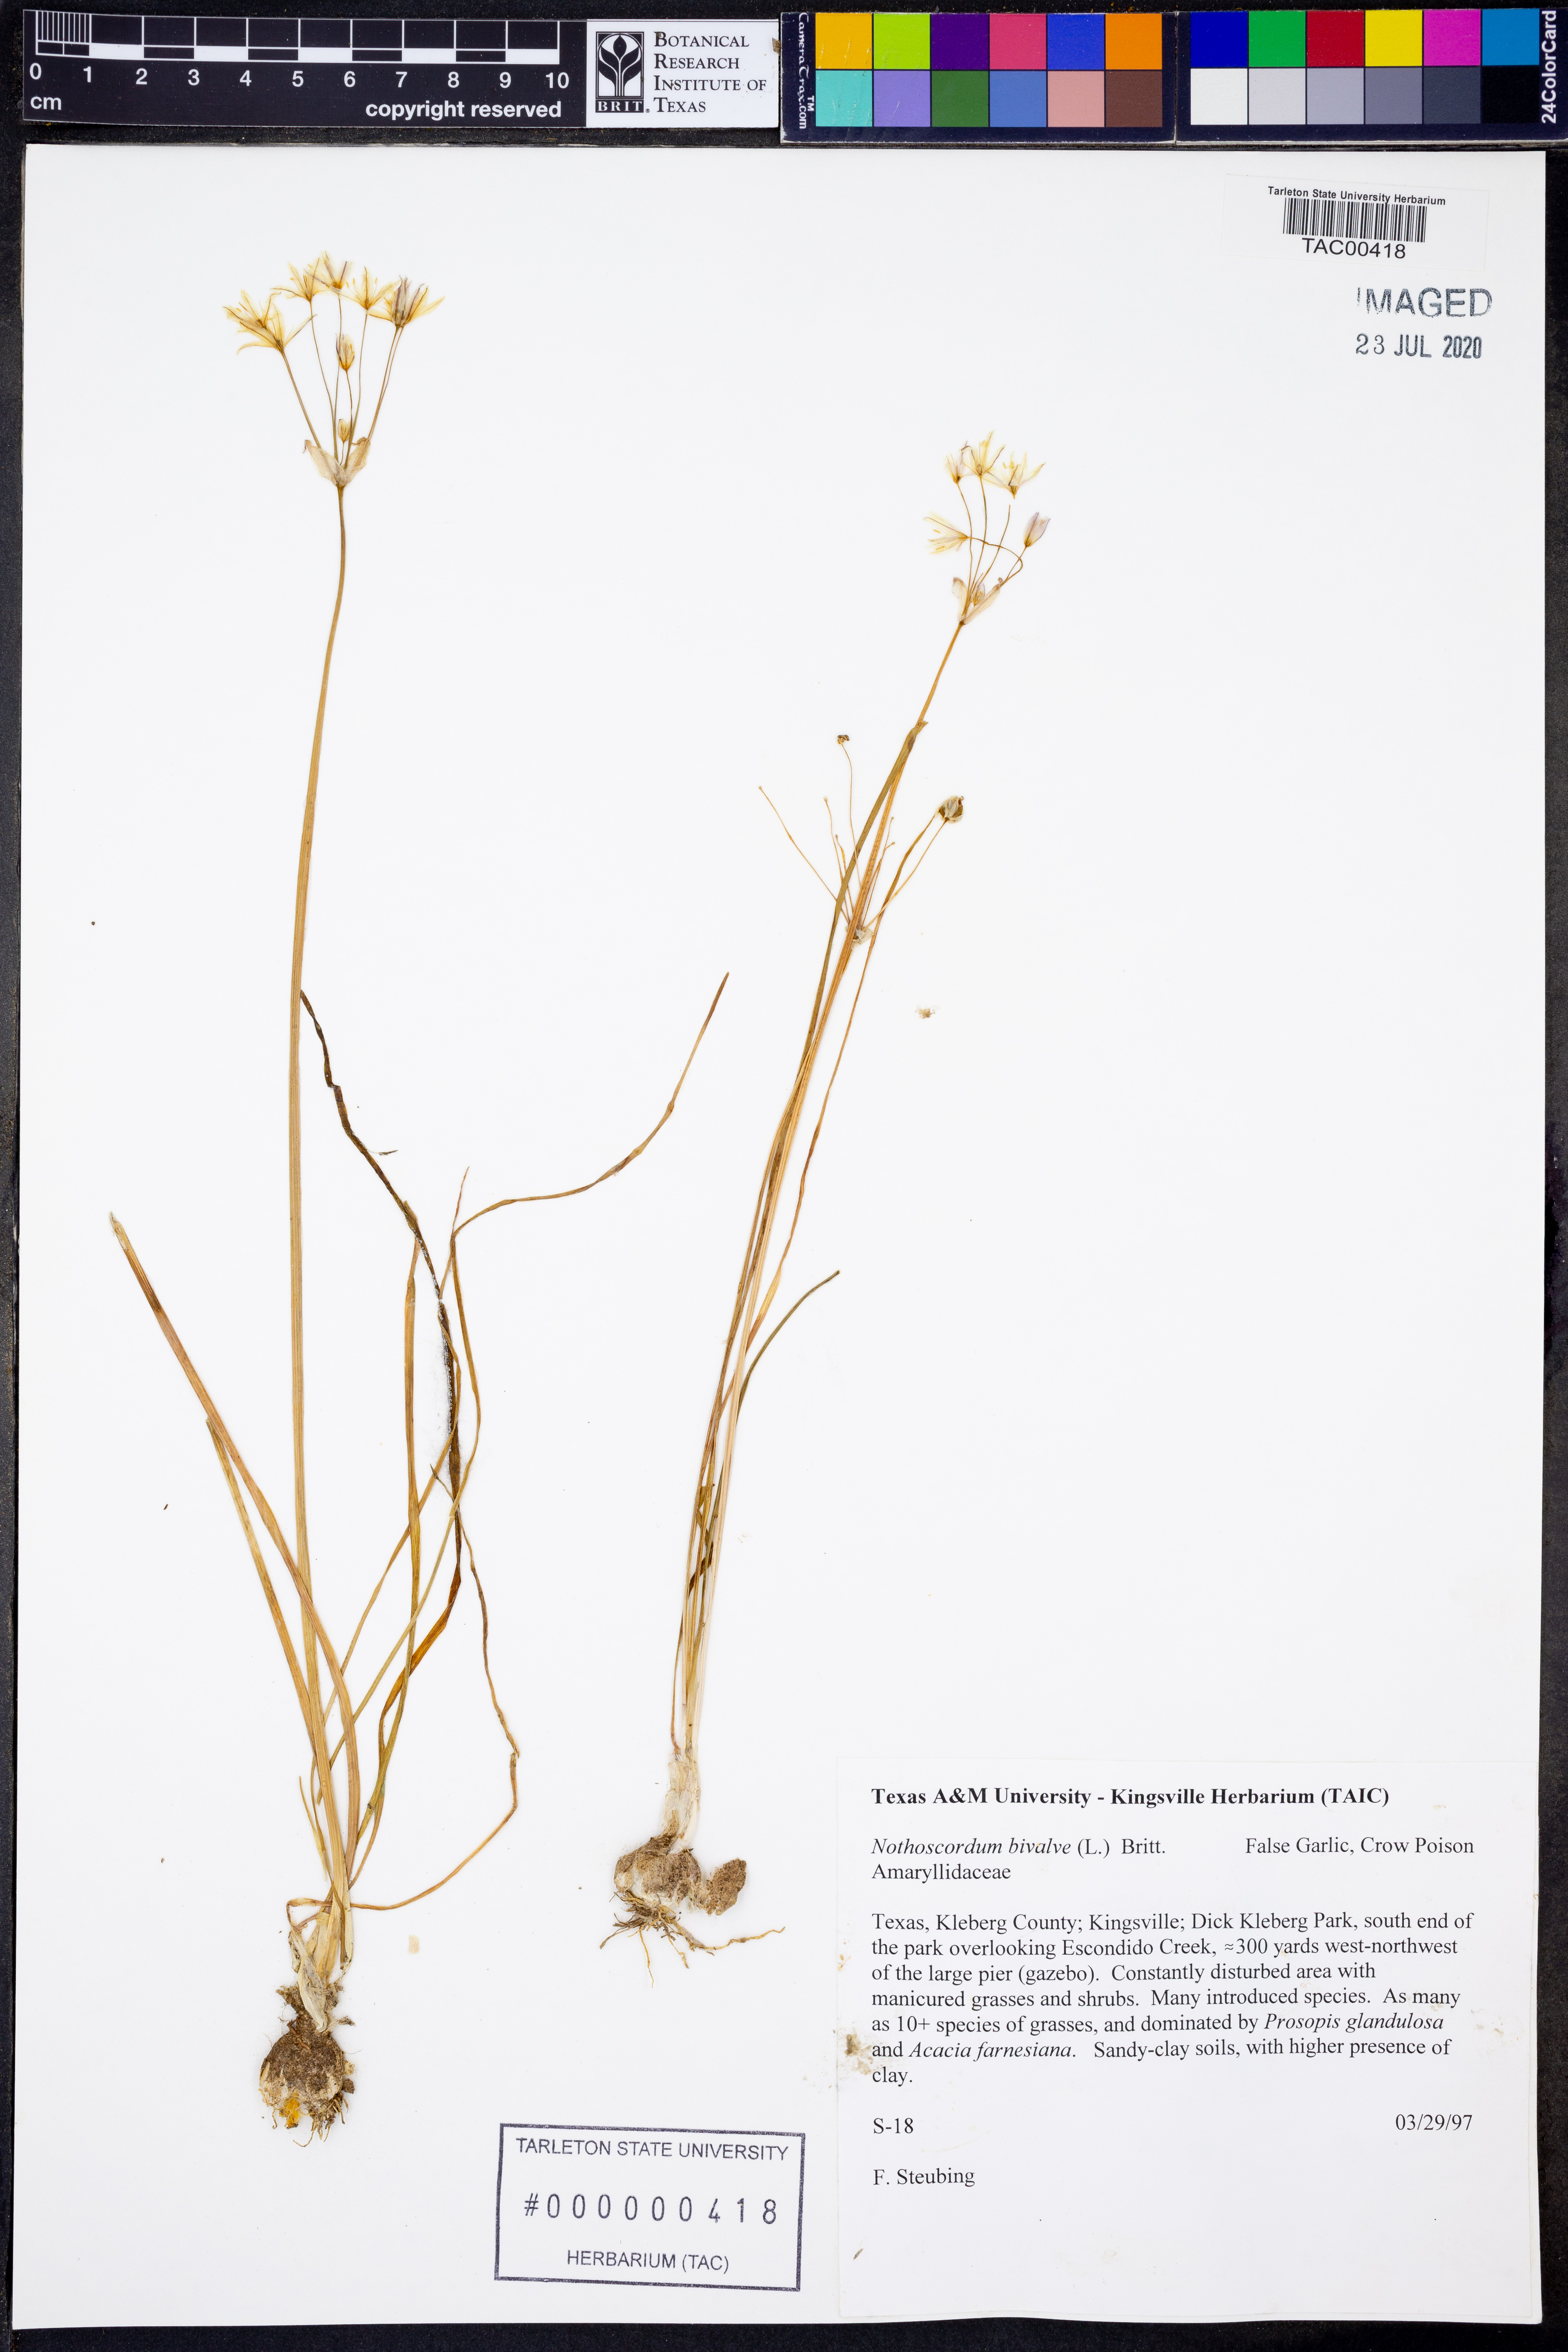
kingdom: Plantae
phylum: Tracheophyta
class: Liliopsida
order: Asparagales
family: Amaryllidaceae
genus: Nothoscordum
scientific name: Nothoscordum bivalve
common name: Crow-poison
